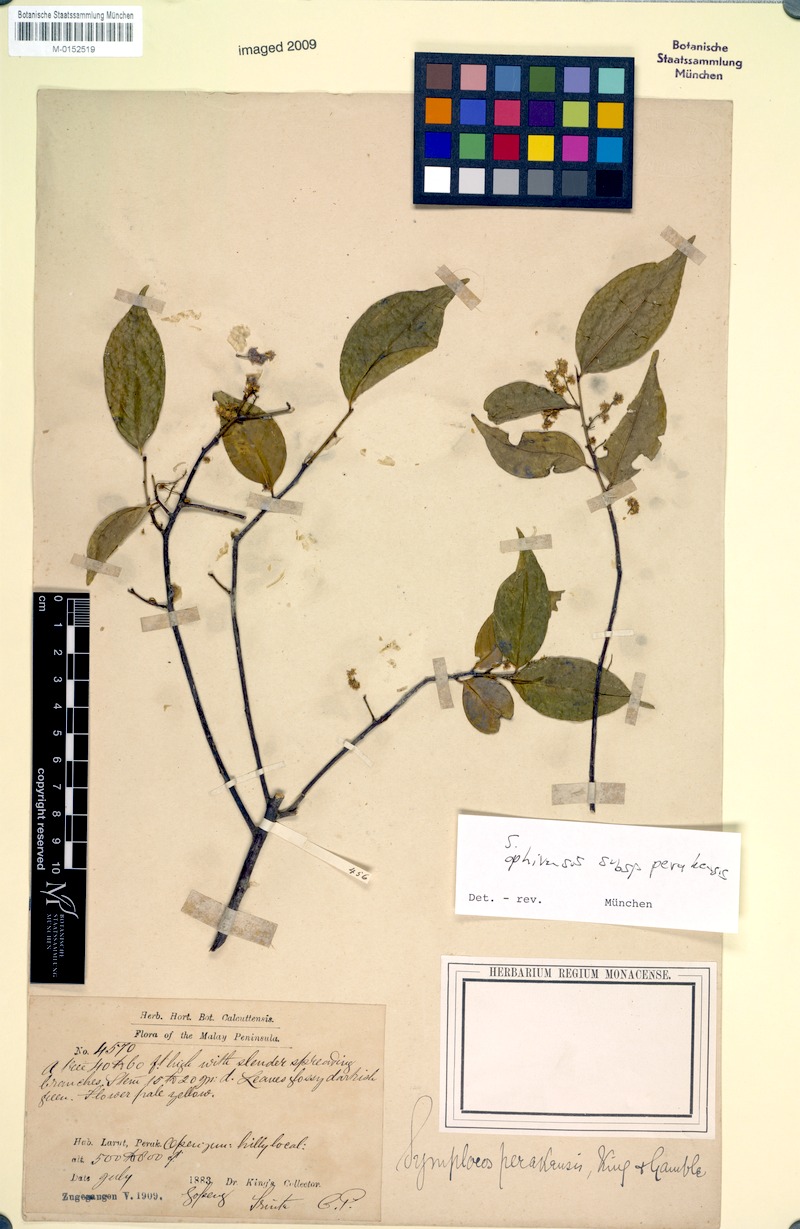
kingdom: Plantae
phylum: Tracheophyta
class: Magnoliopsida
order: Ericales
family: Symplocaceae
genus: Symplocos
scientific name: Symplocos ophirensis
